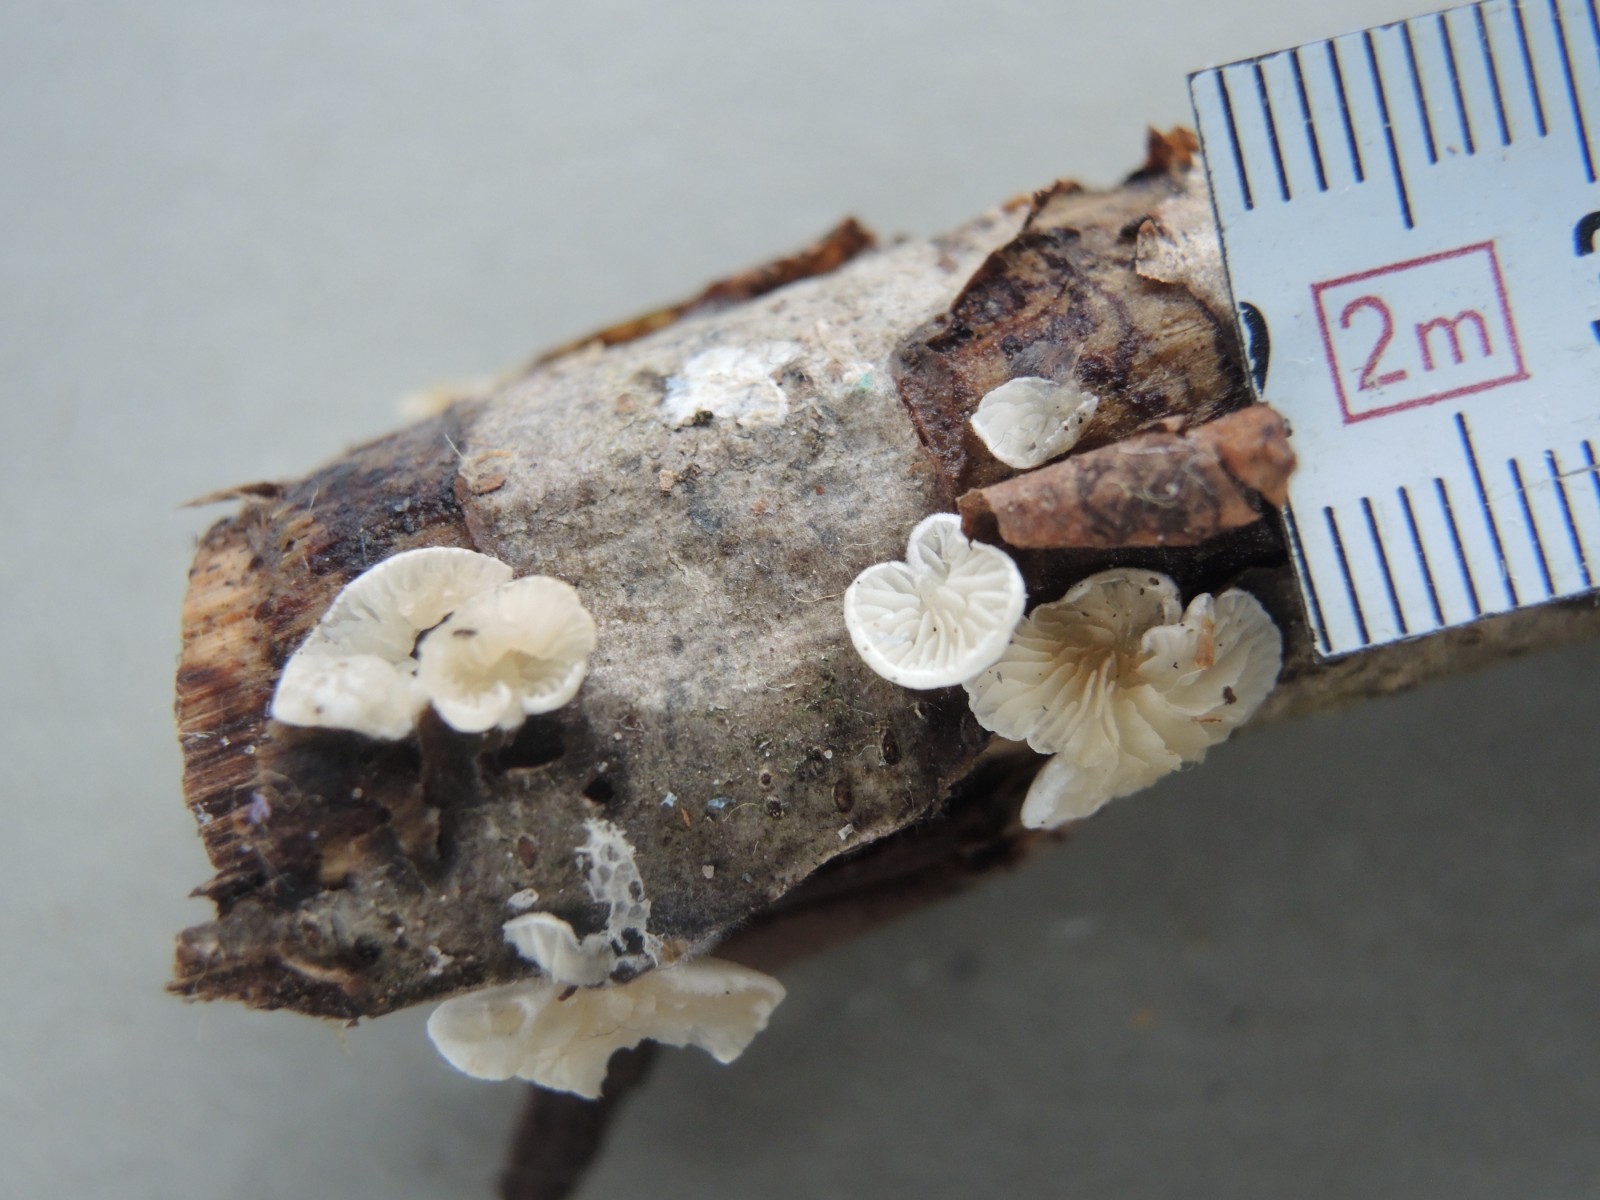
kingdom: Fungi
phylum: Basidiomycota
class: Agaricomycetes
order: Agaricales
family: Crepidotaceae
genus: Crepidotus
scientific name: Crepidotus epibryus
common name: førne-muslingesvamp
